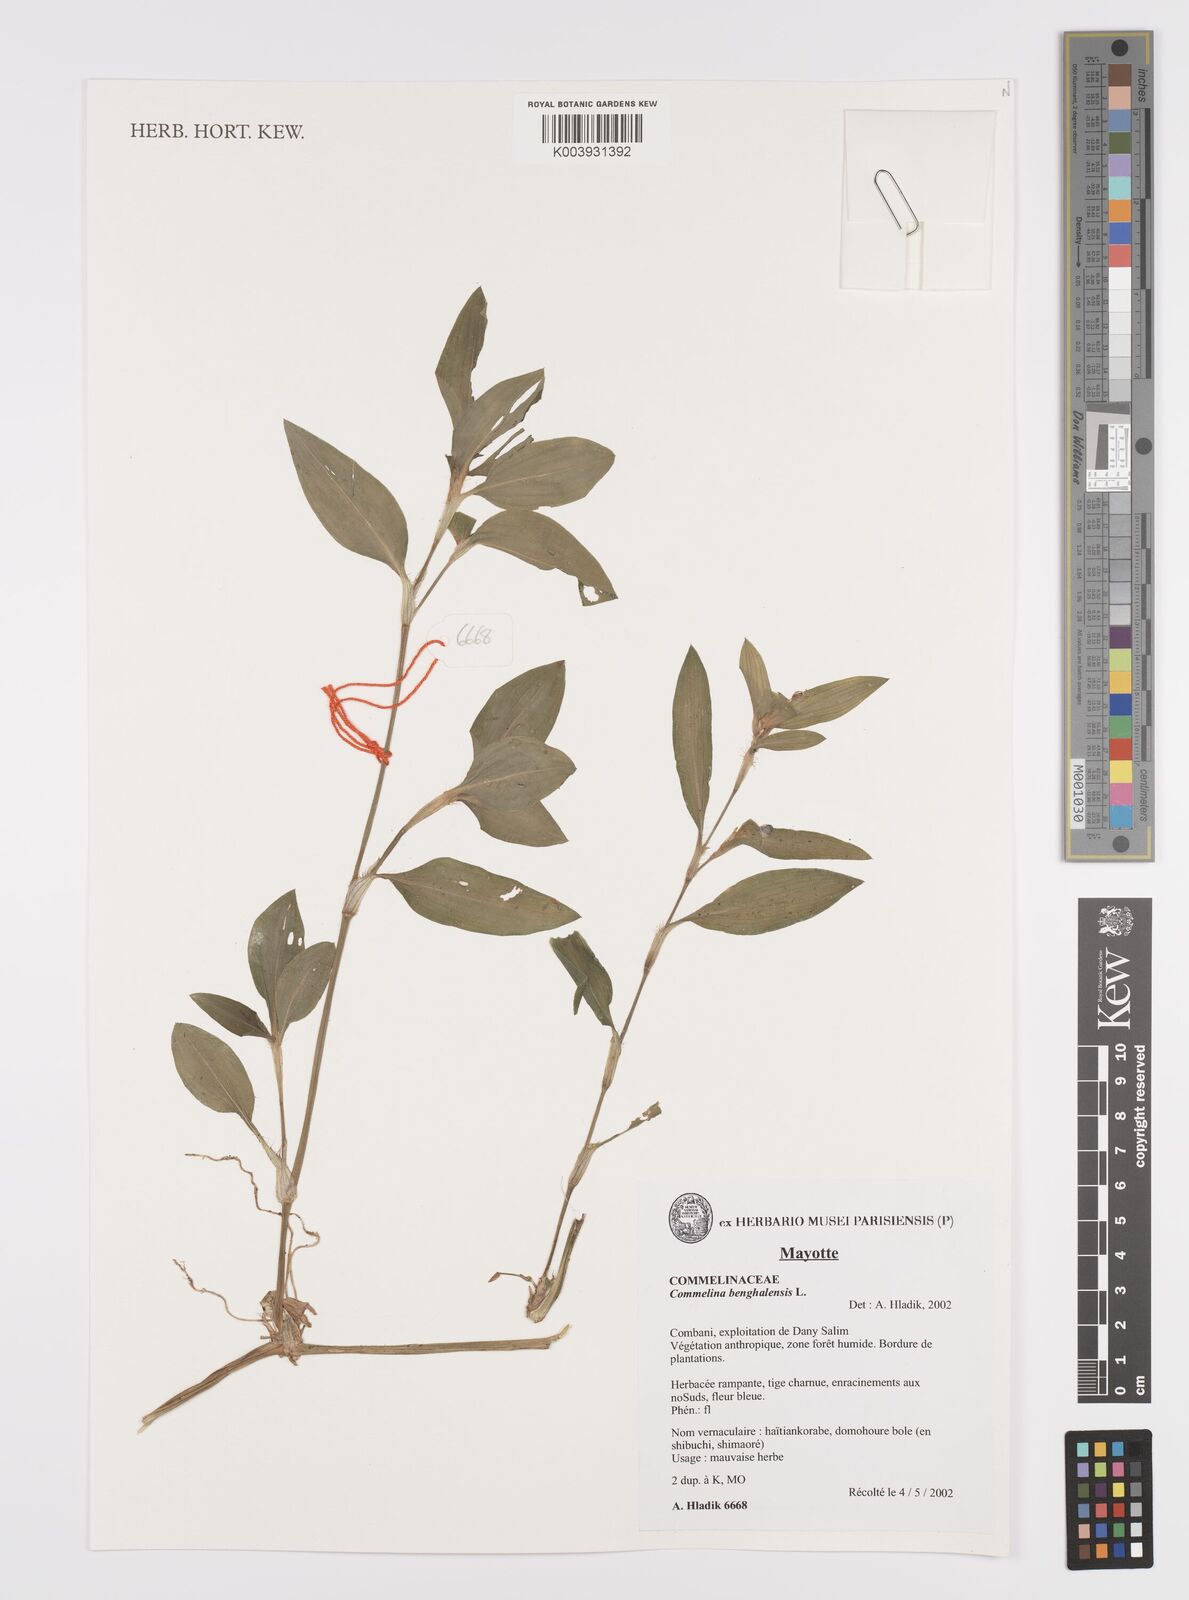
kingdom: Plantae
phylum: Tracheophyta
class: Liliopsida
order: Commelinales
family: Commelinaceae
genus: Commelina
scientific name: Commelina benghalensis
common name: Jio
